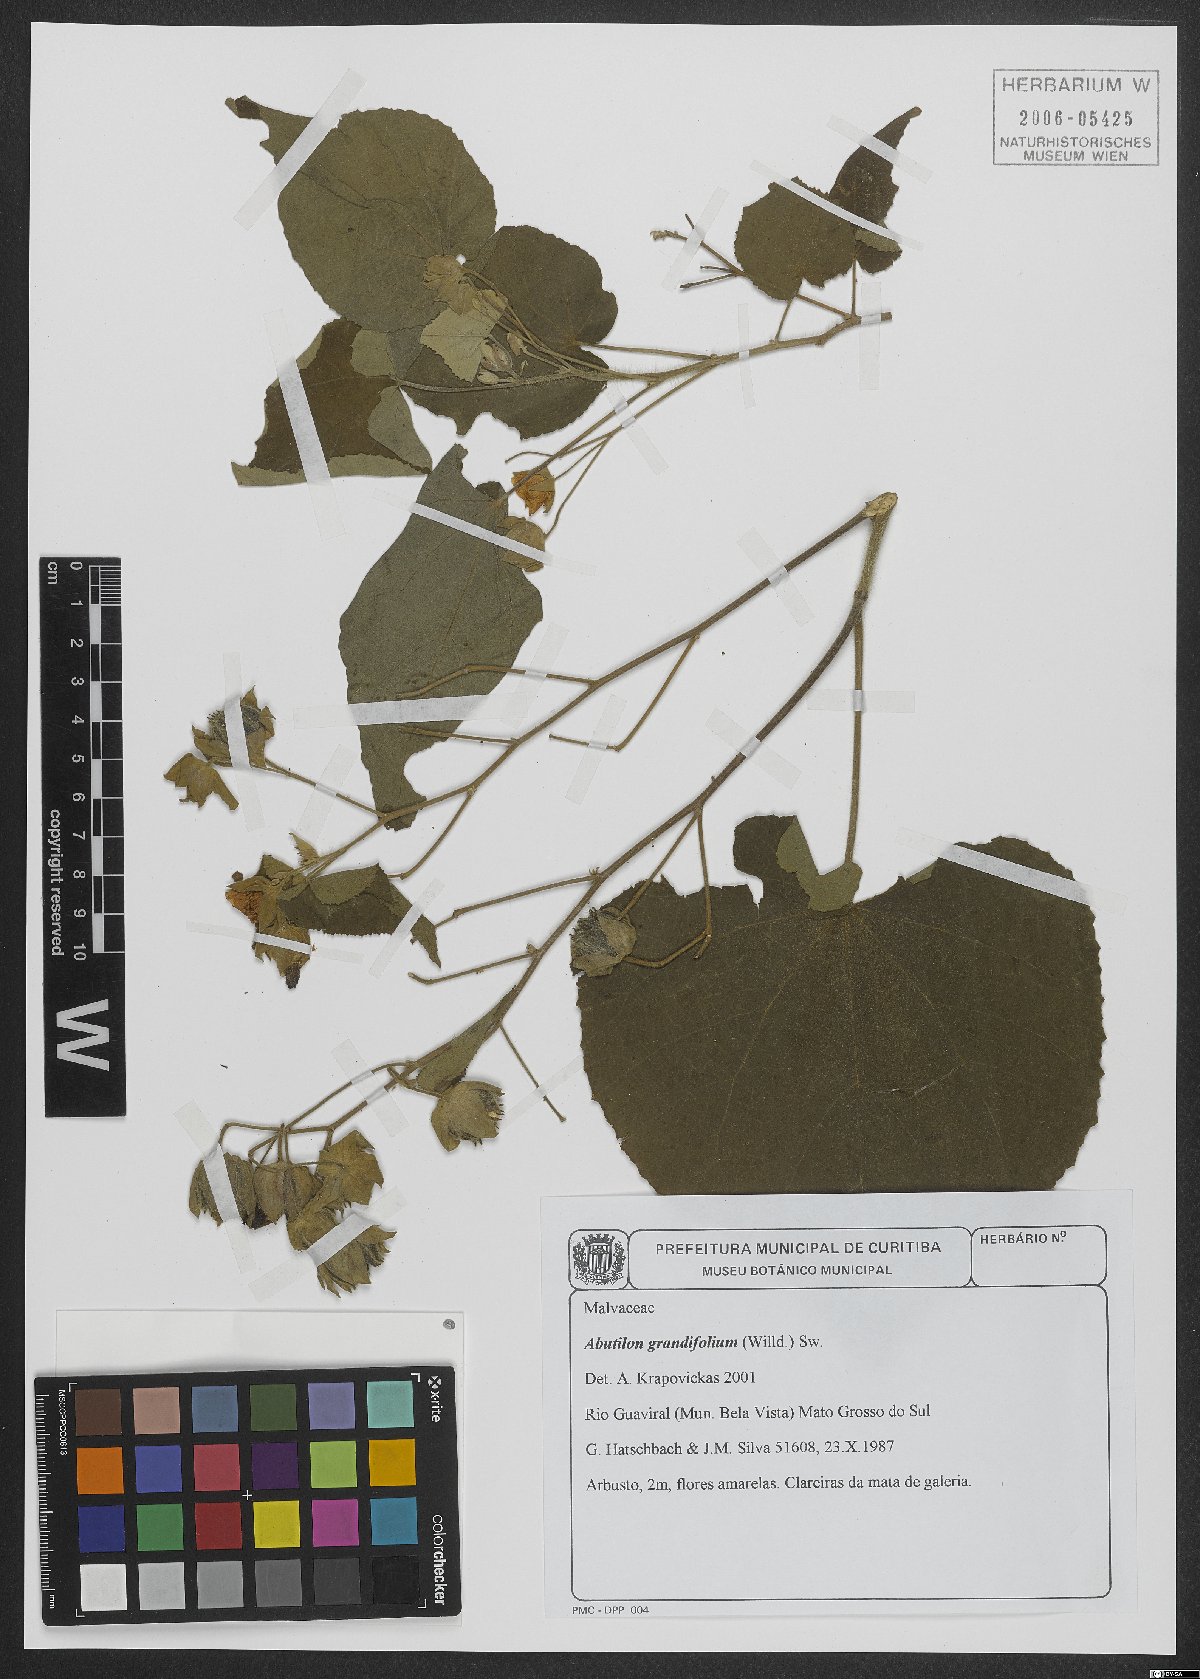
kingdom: Plantae
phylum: Tracheophyta
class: Magnoliopsida
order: Malvales
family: Malvaceae
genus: Abutilon
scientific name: Abutilon grandifolium
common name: Hairy abutilon
